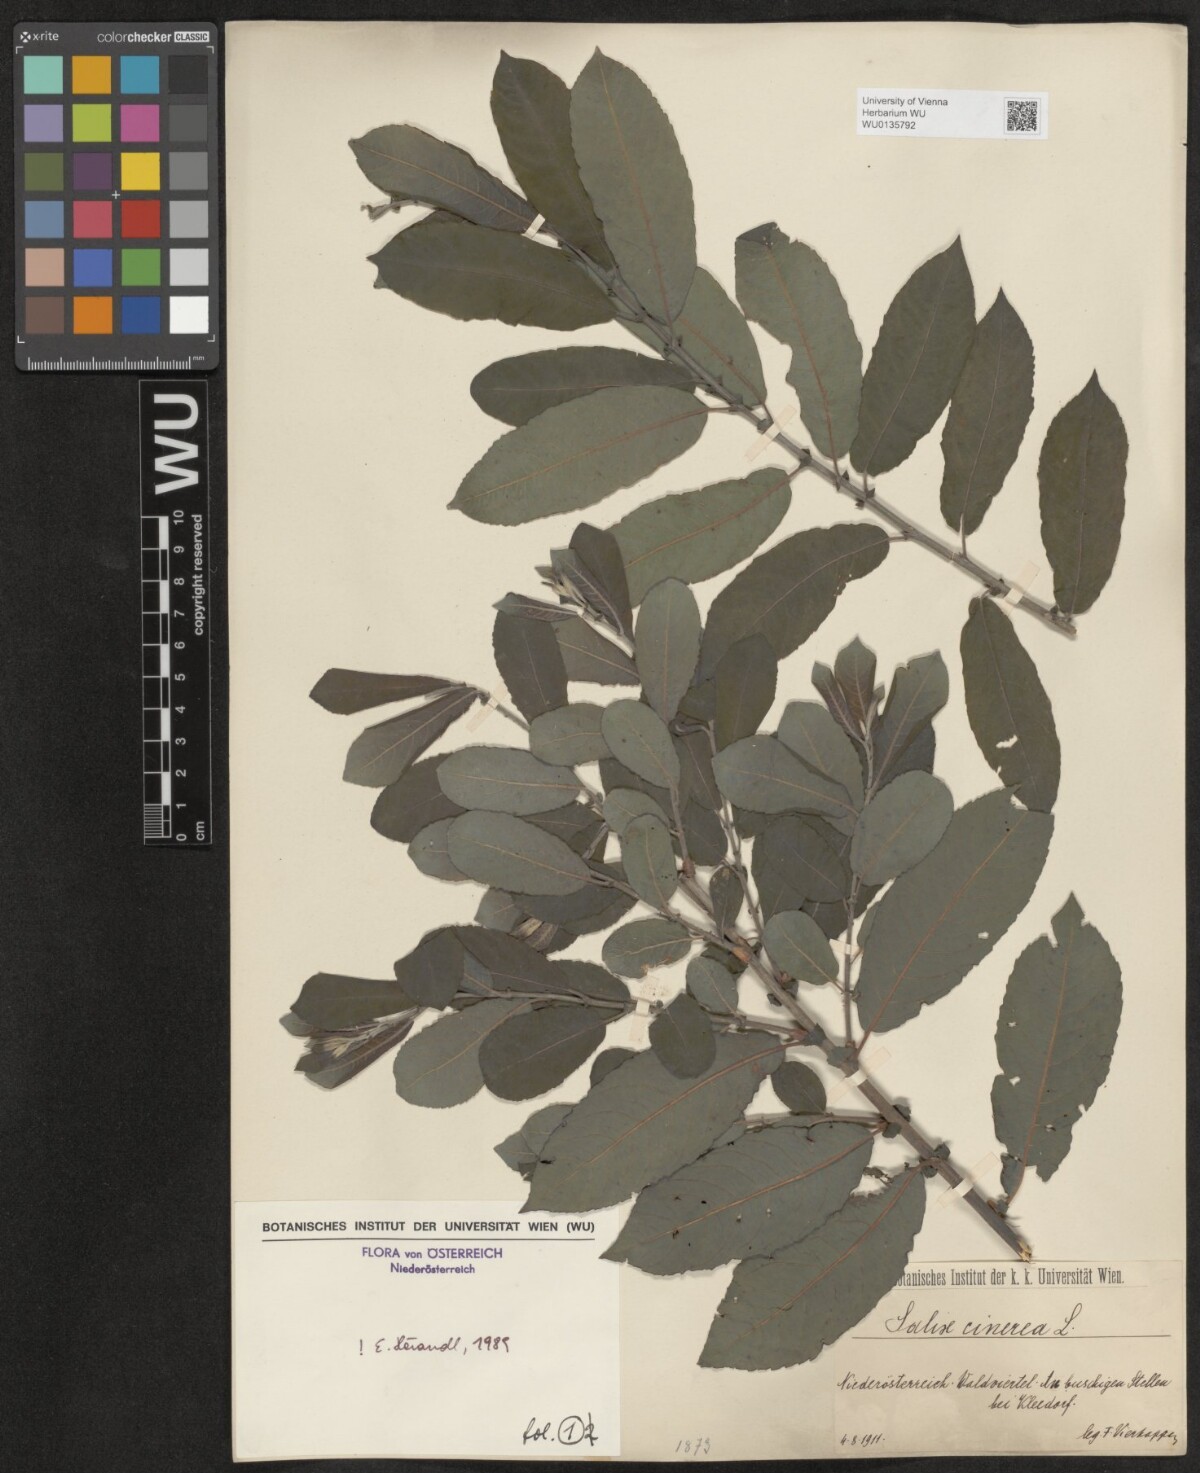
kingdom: Plantae
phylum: Tracheophyta
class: Magnoliopsida
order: Malpighiales
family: Salicaceae
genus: Salix
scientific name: Salix cinerea
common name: Common sallow
